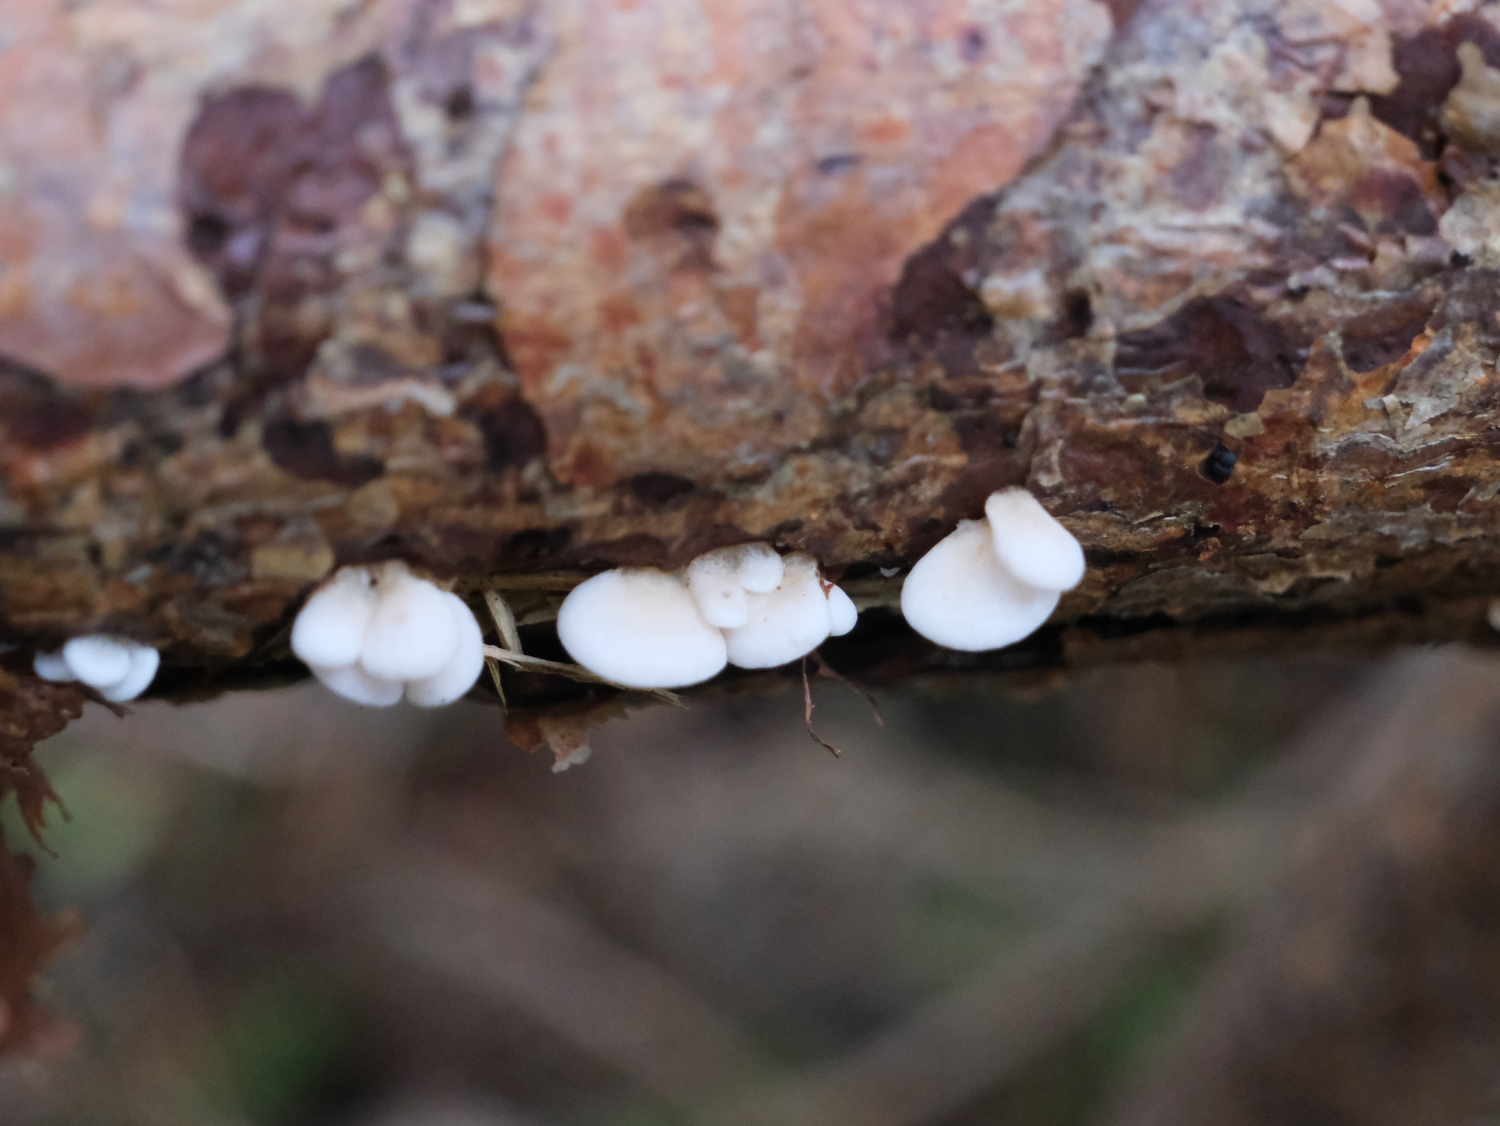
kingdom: Fungi
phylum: Basidiomycota
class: Agaricomycetes
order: Agaricales
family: Mycenaceae
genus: Panellus
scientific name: Panellus mitis
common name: mild epaulethat
